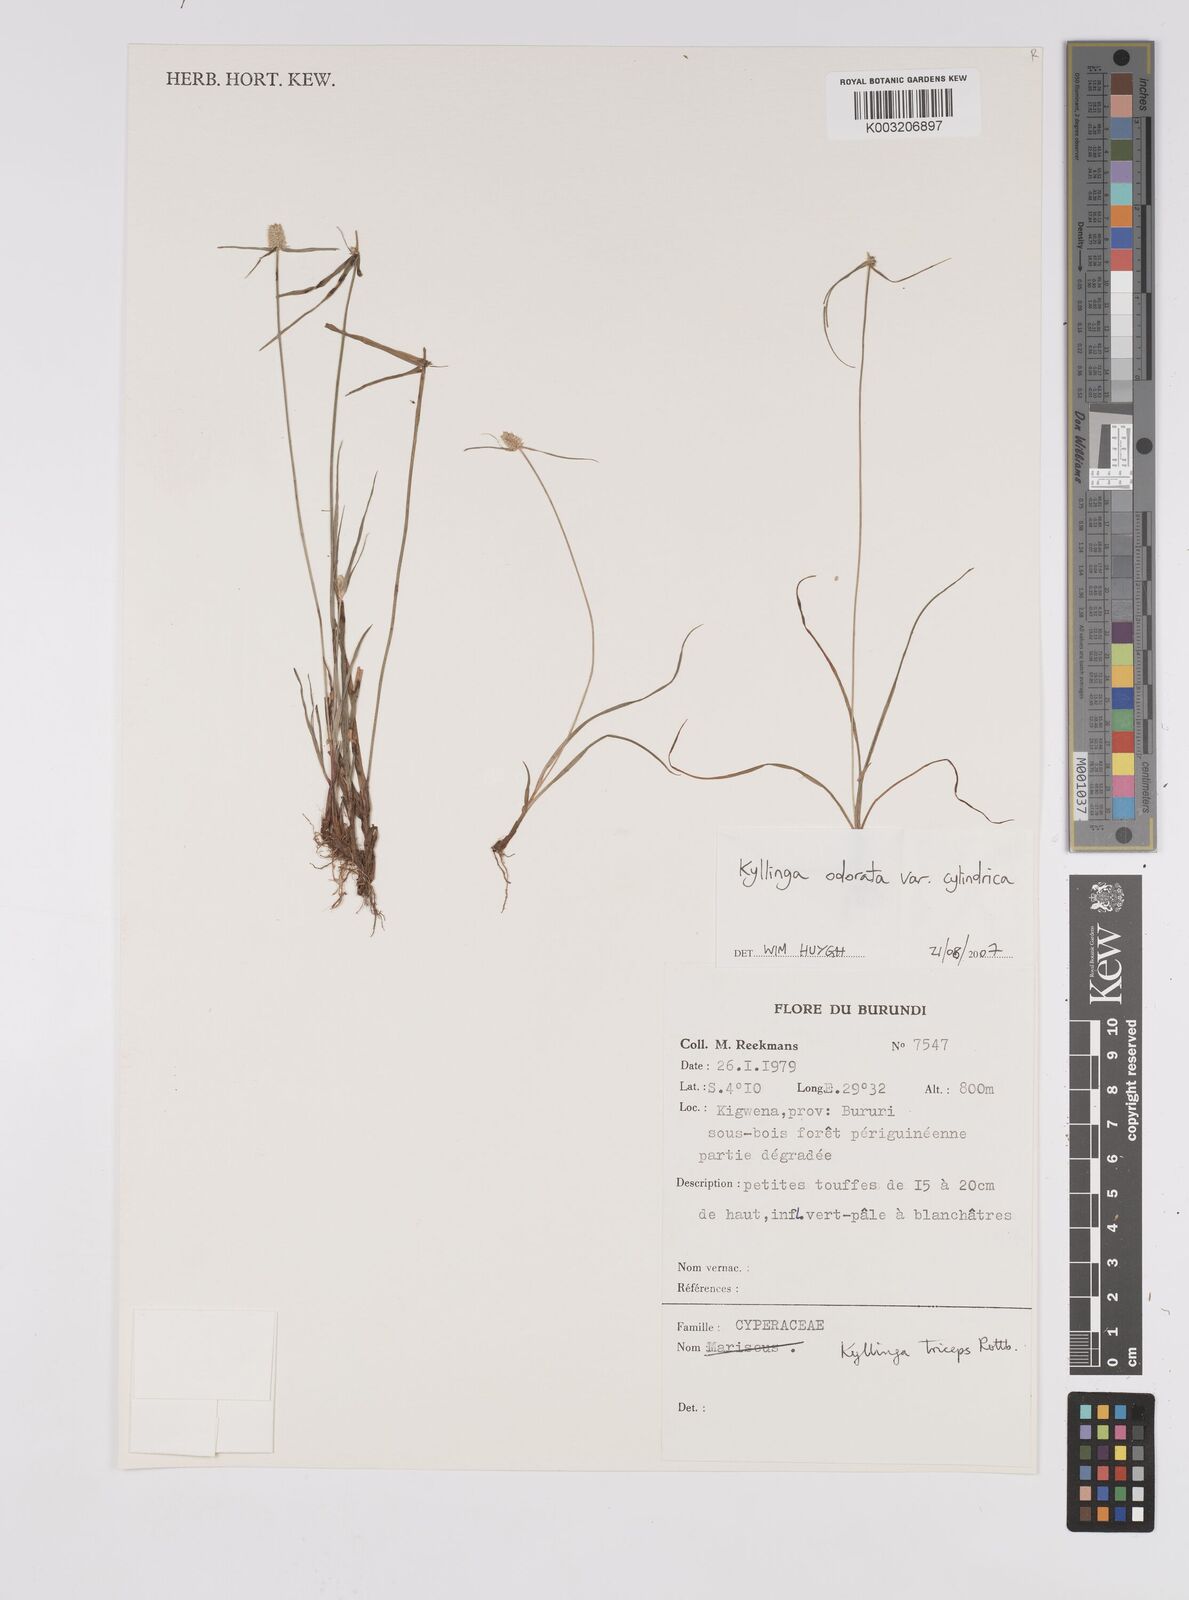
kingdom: Plantae
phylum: Tracheophyta
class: Liliopsida
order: Poales
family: Cyperaceae
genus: Cyperus
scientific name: Cyperus odoratus
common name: Fragrant flatsedge
